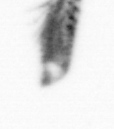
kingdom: Animalia
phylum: Arthropoda
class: Copepoda
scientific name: Copepoda
